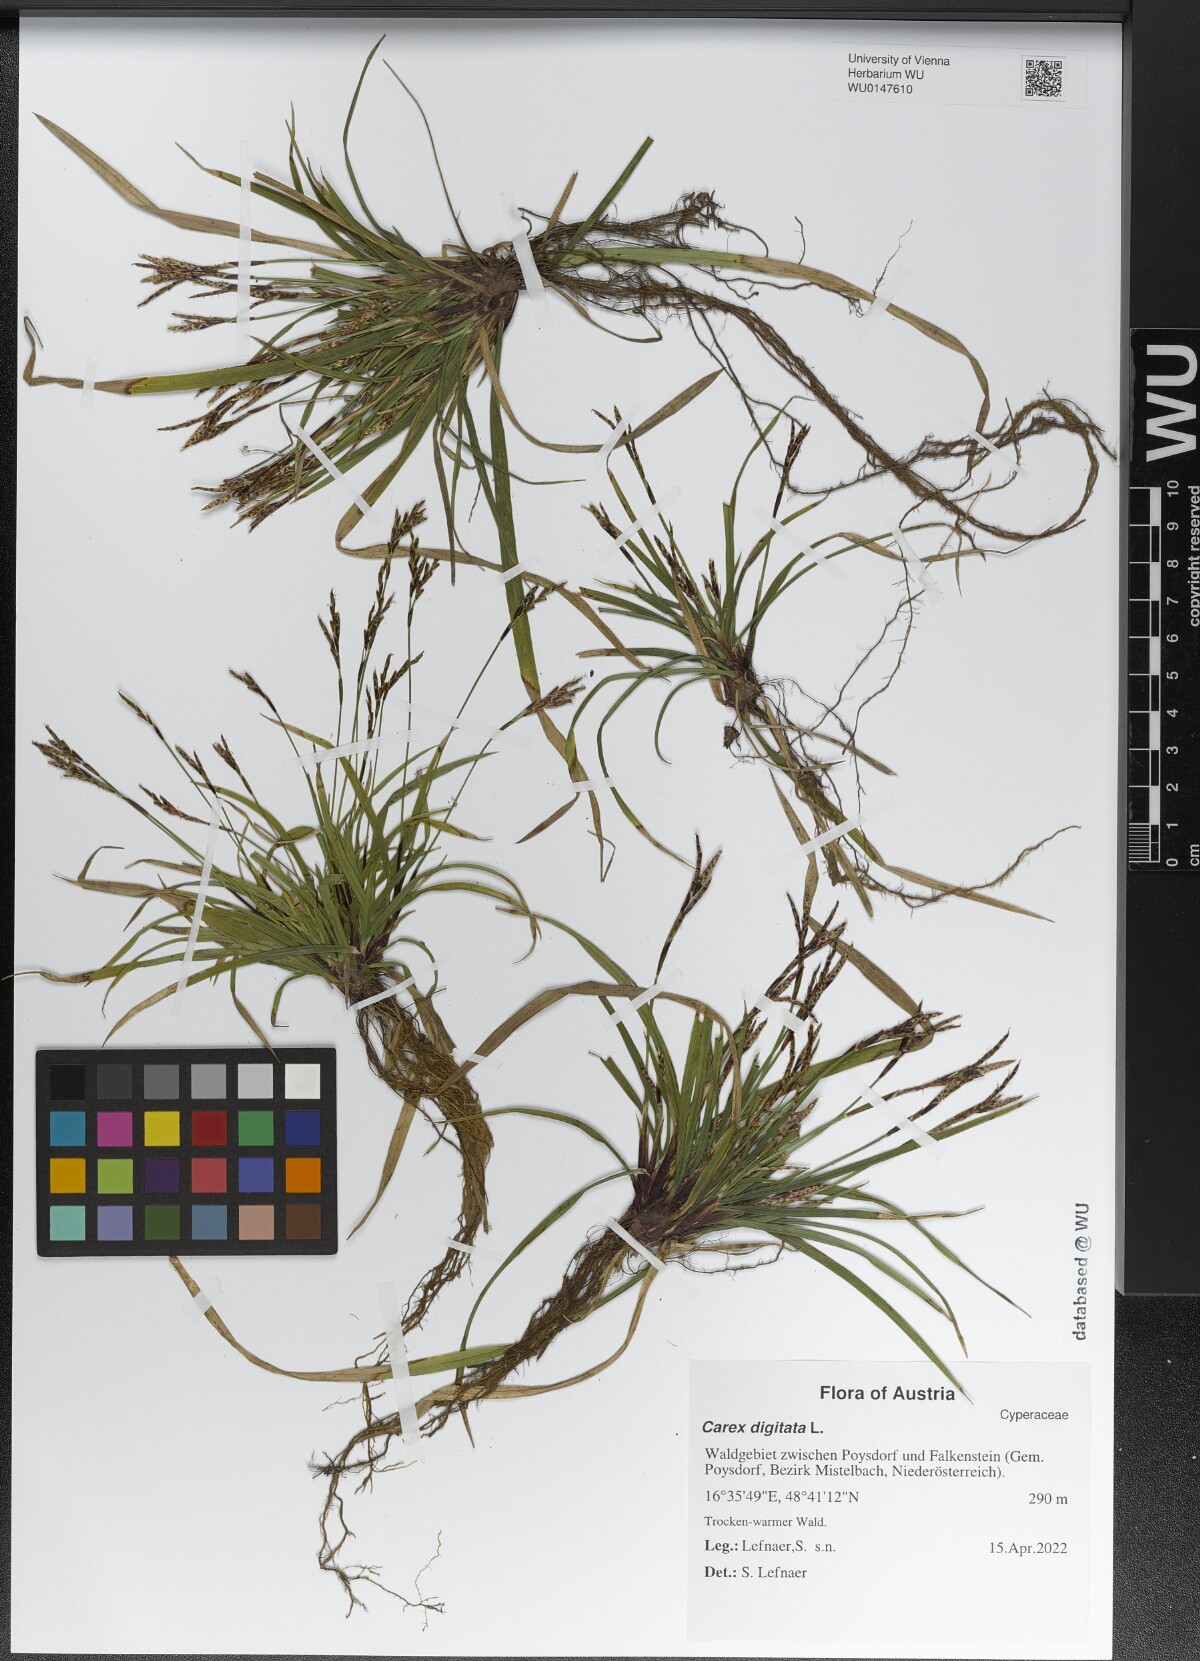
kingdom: Plantae
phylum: Tracheophyta
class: Liliopsida
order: Poales
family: Cyperaceae
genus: Carex
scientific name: Carex digitata
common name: Fingered sedge
